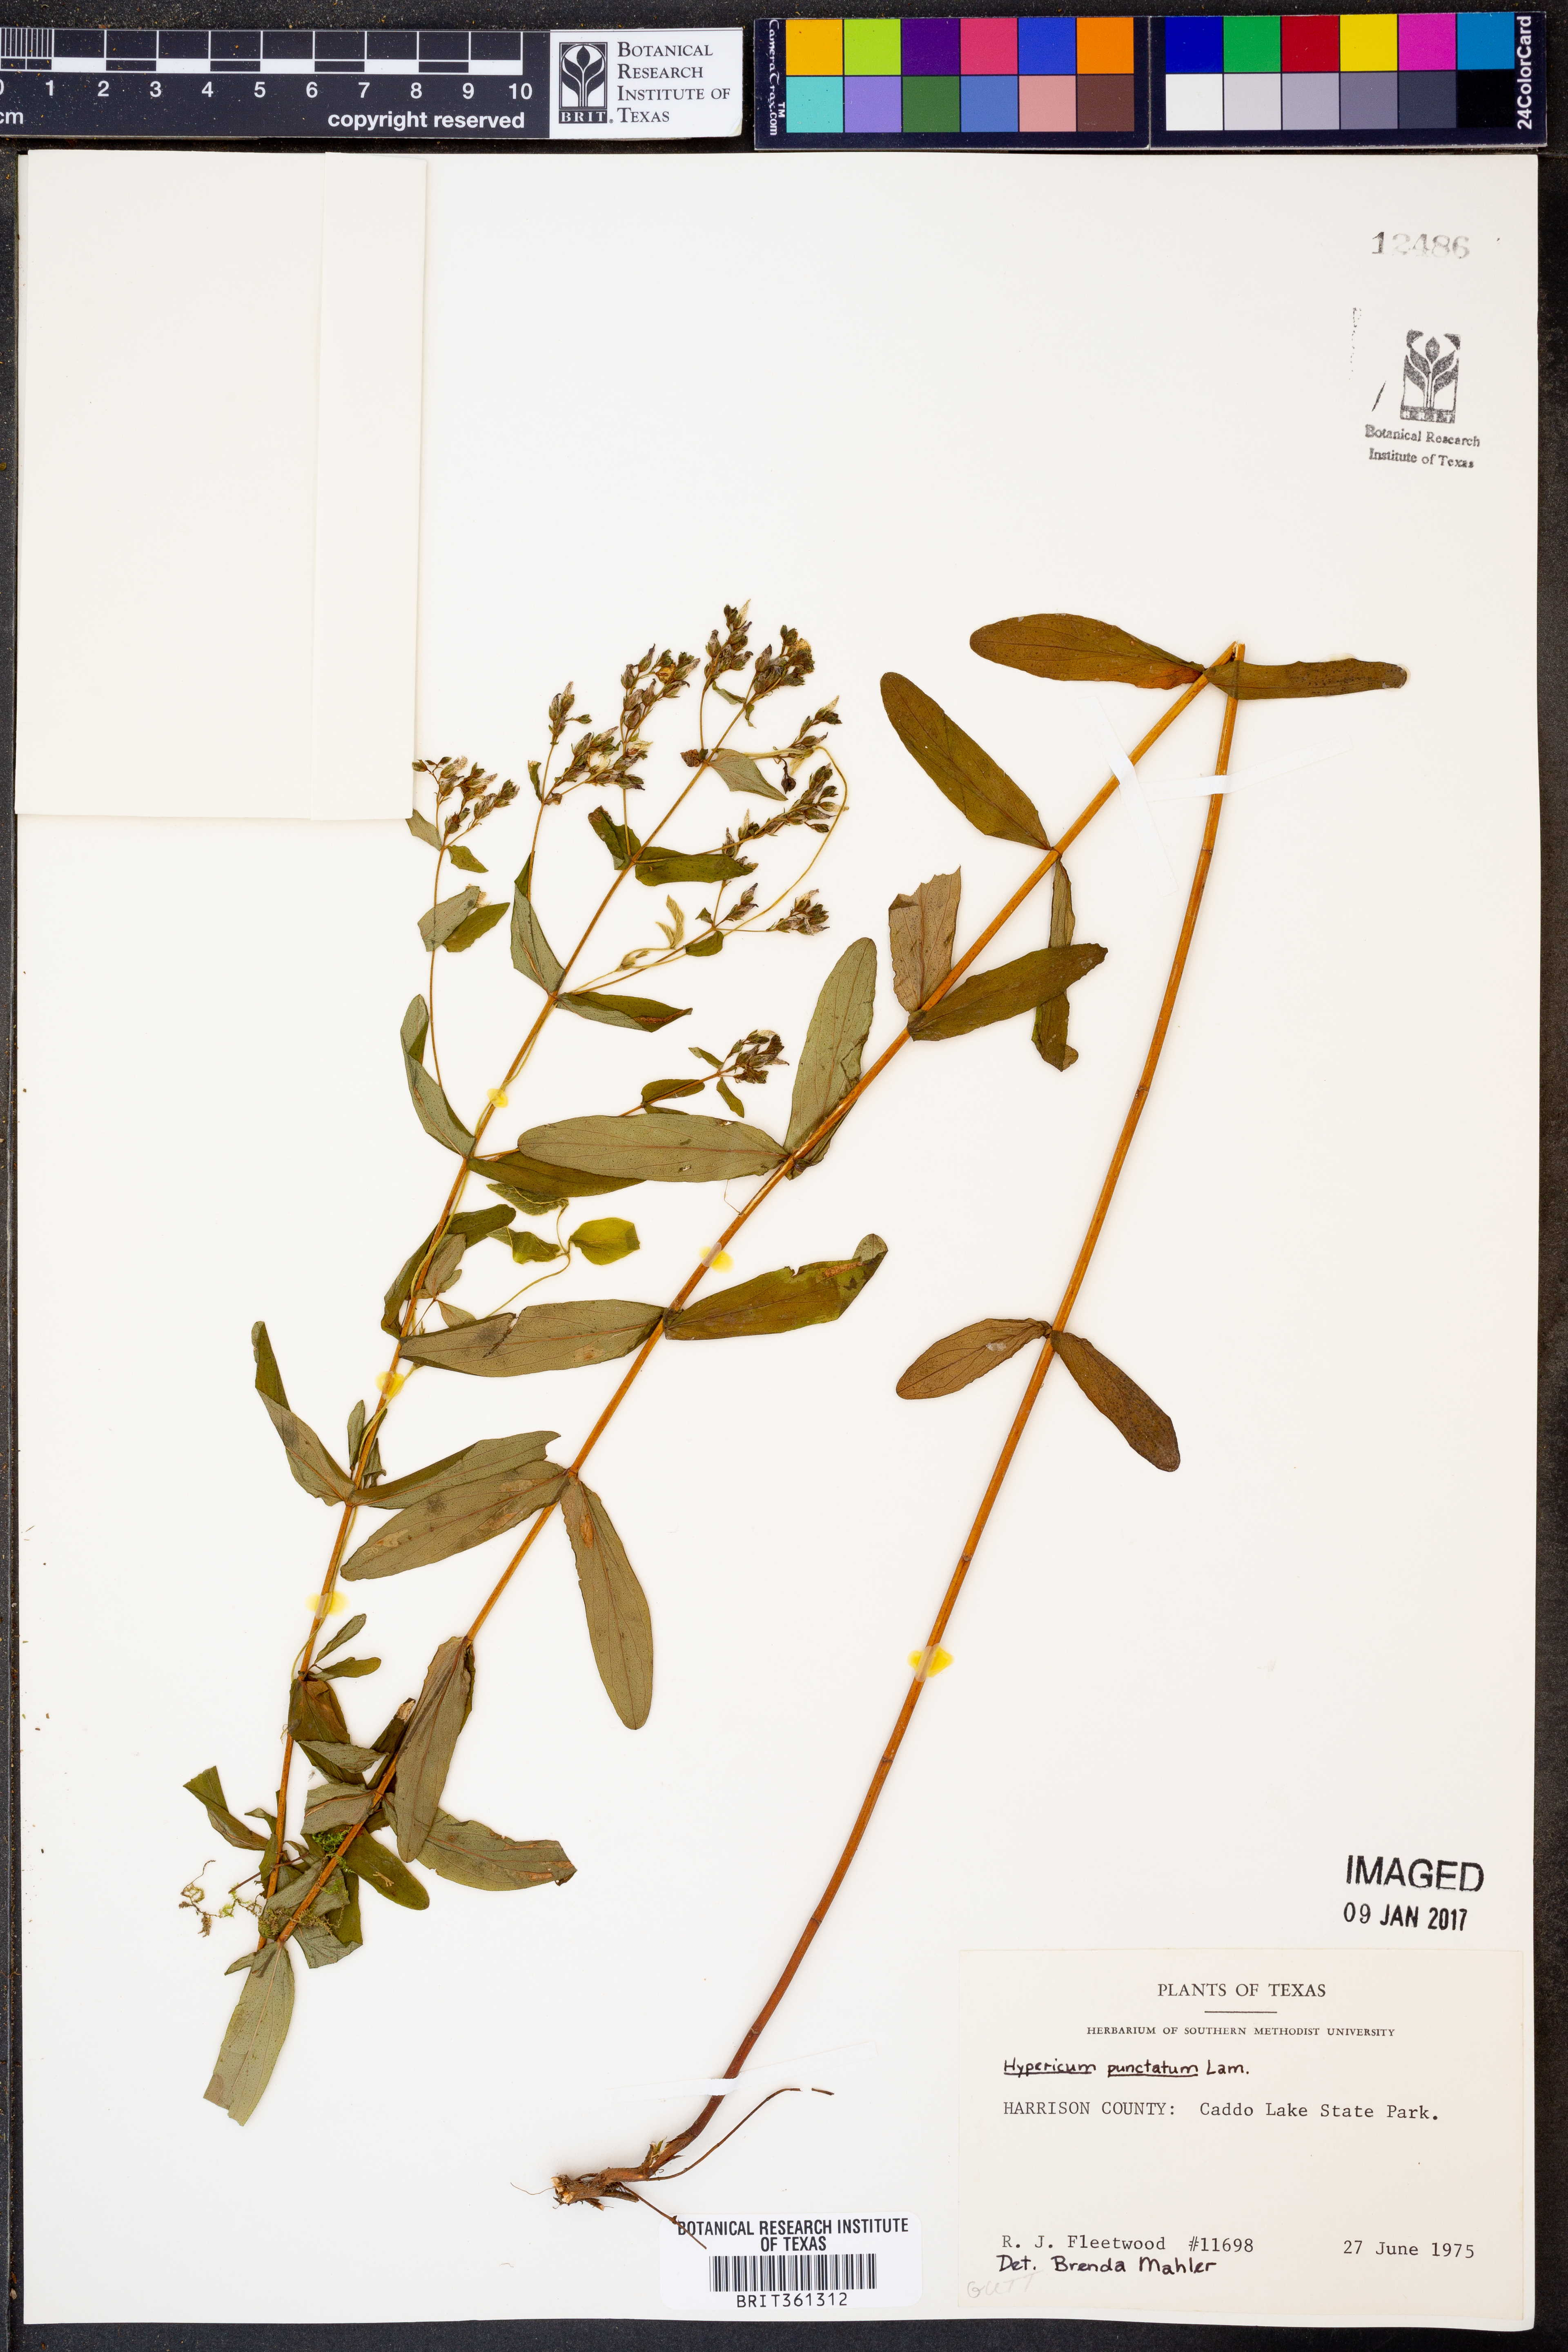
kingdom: Plantae
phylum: Tracheophyta
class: Magnoliopsida
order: Malpighiales
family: Hypericaceae
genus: Hypericum
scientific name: Hypericum punctatum
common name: Spotted st. john's-wort
